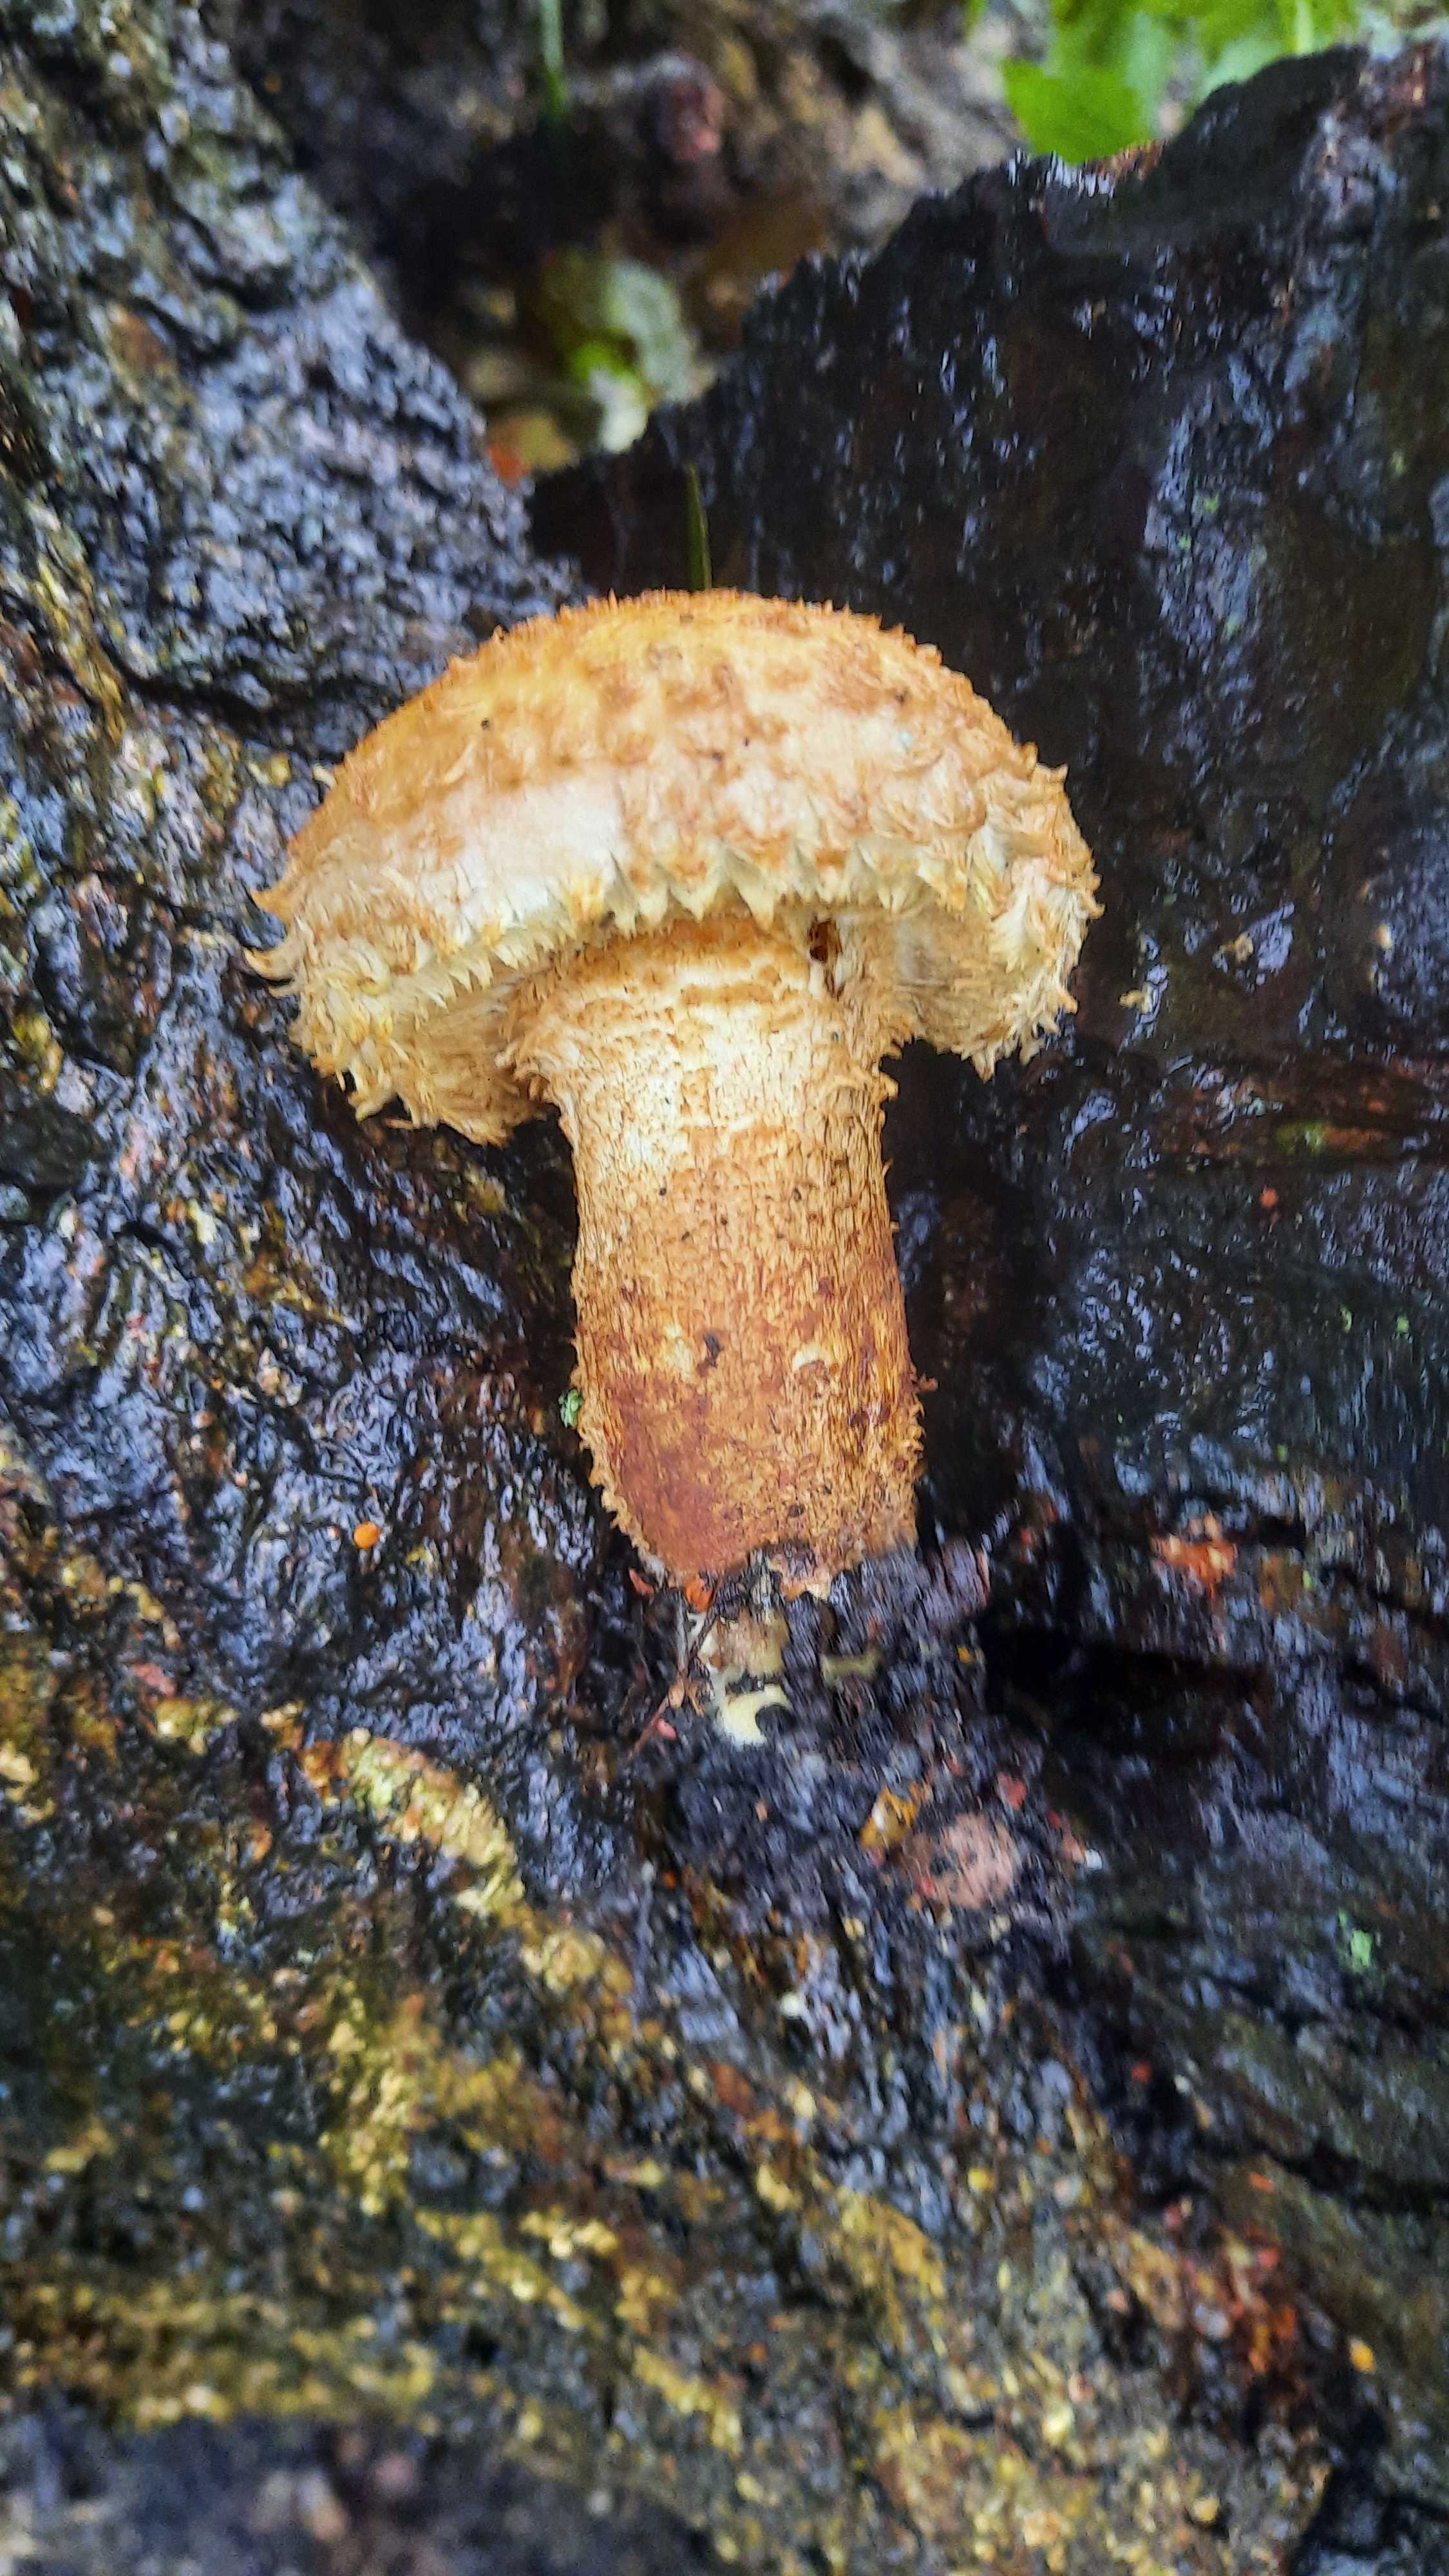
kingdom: Fungi
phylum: Basidiomycota
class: Agaricomycetes
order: Agaricales
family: Strophariaceae
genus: Pholiota
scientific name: Pholiota squarrosa
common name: krumskællet skælhat
